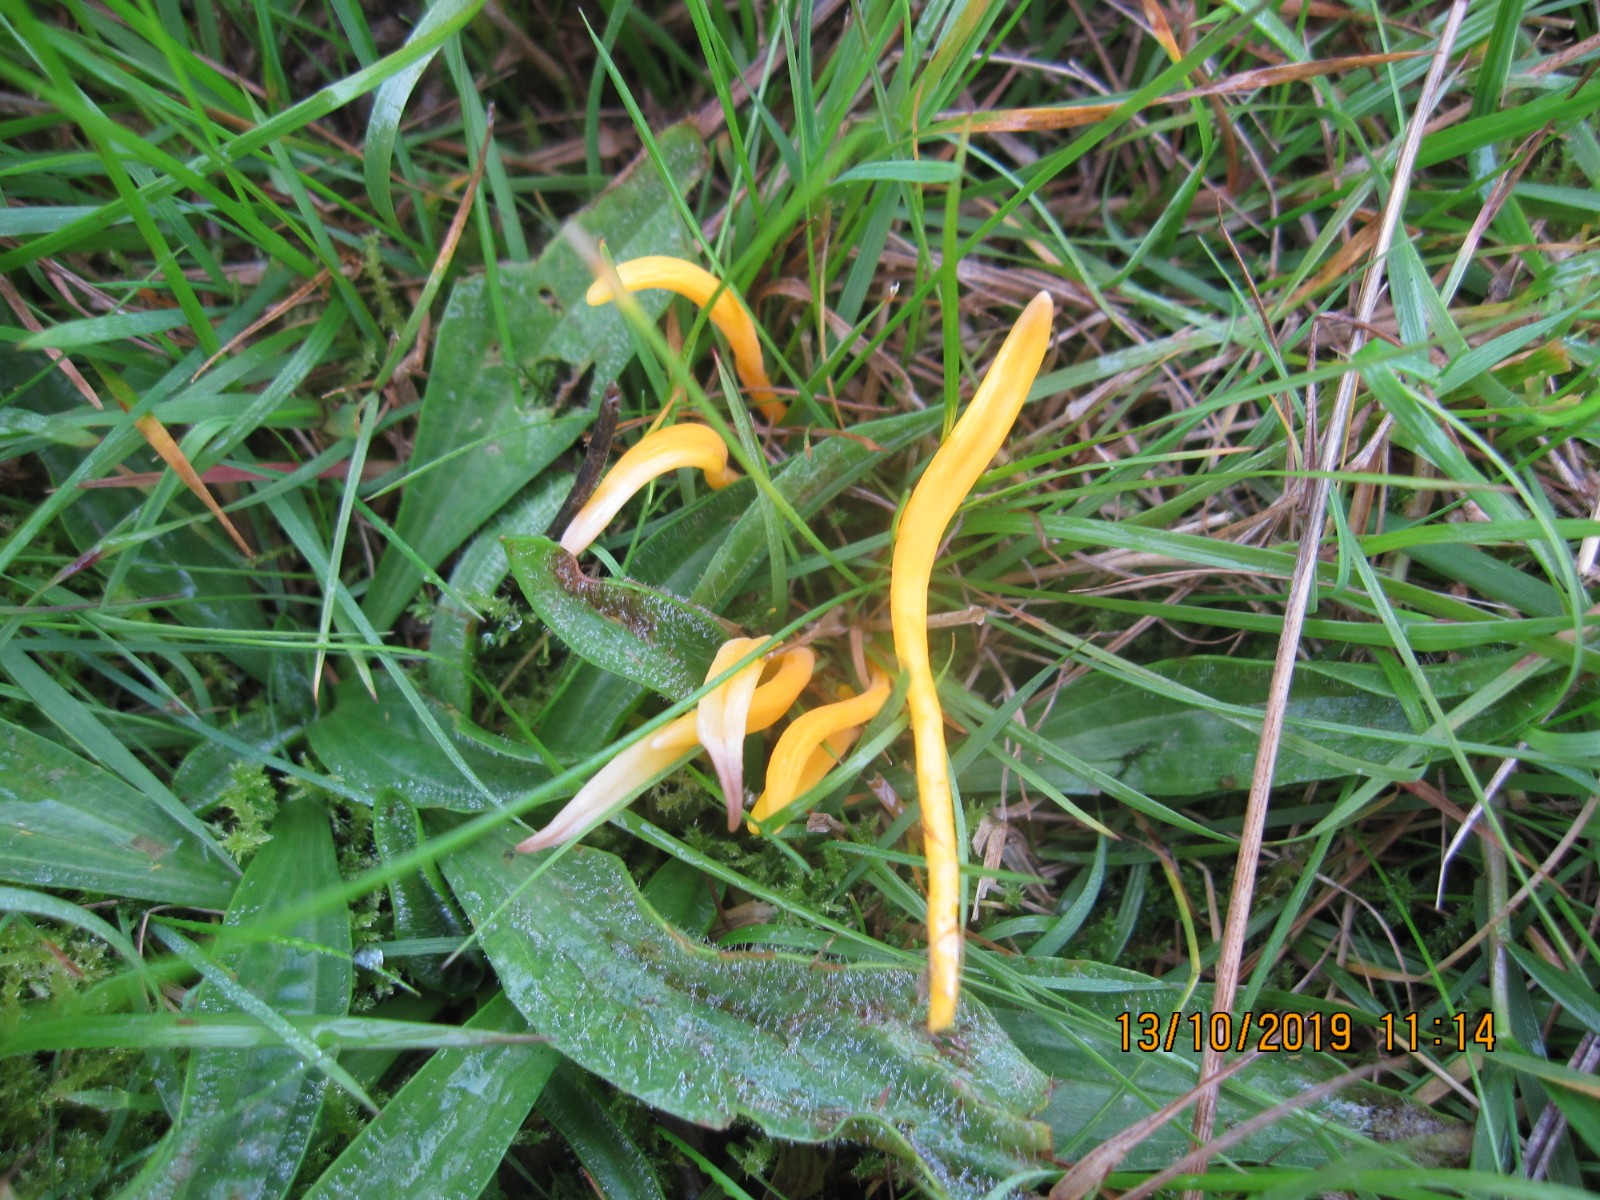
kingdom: Fungi
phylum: Basidiomycota
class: Agaricomycetes
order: Agaricales
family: Clavariaceae
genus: Clavulinopsis
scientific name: Clavulinopsis helvola
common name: orangegul køllesvamp
